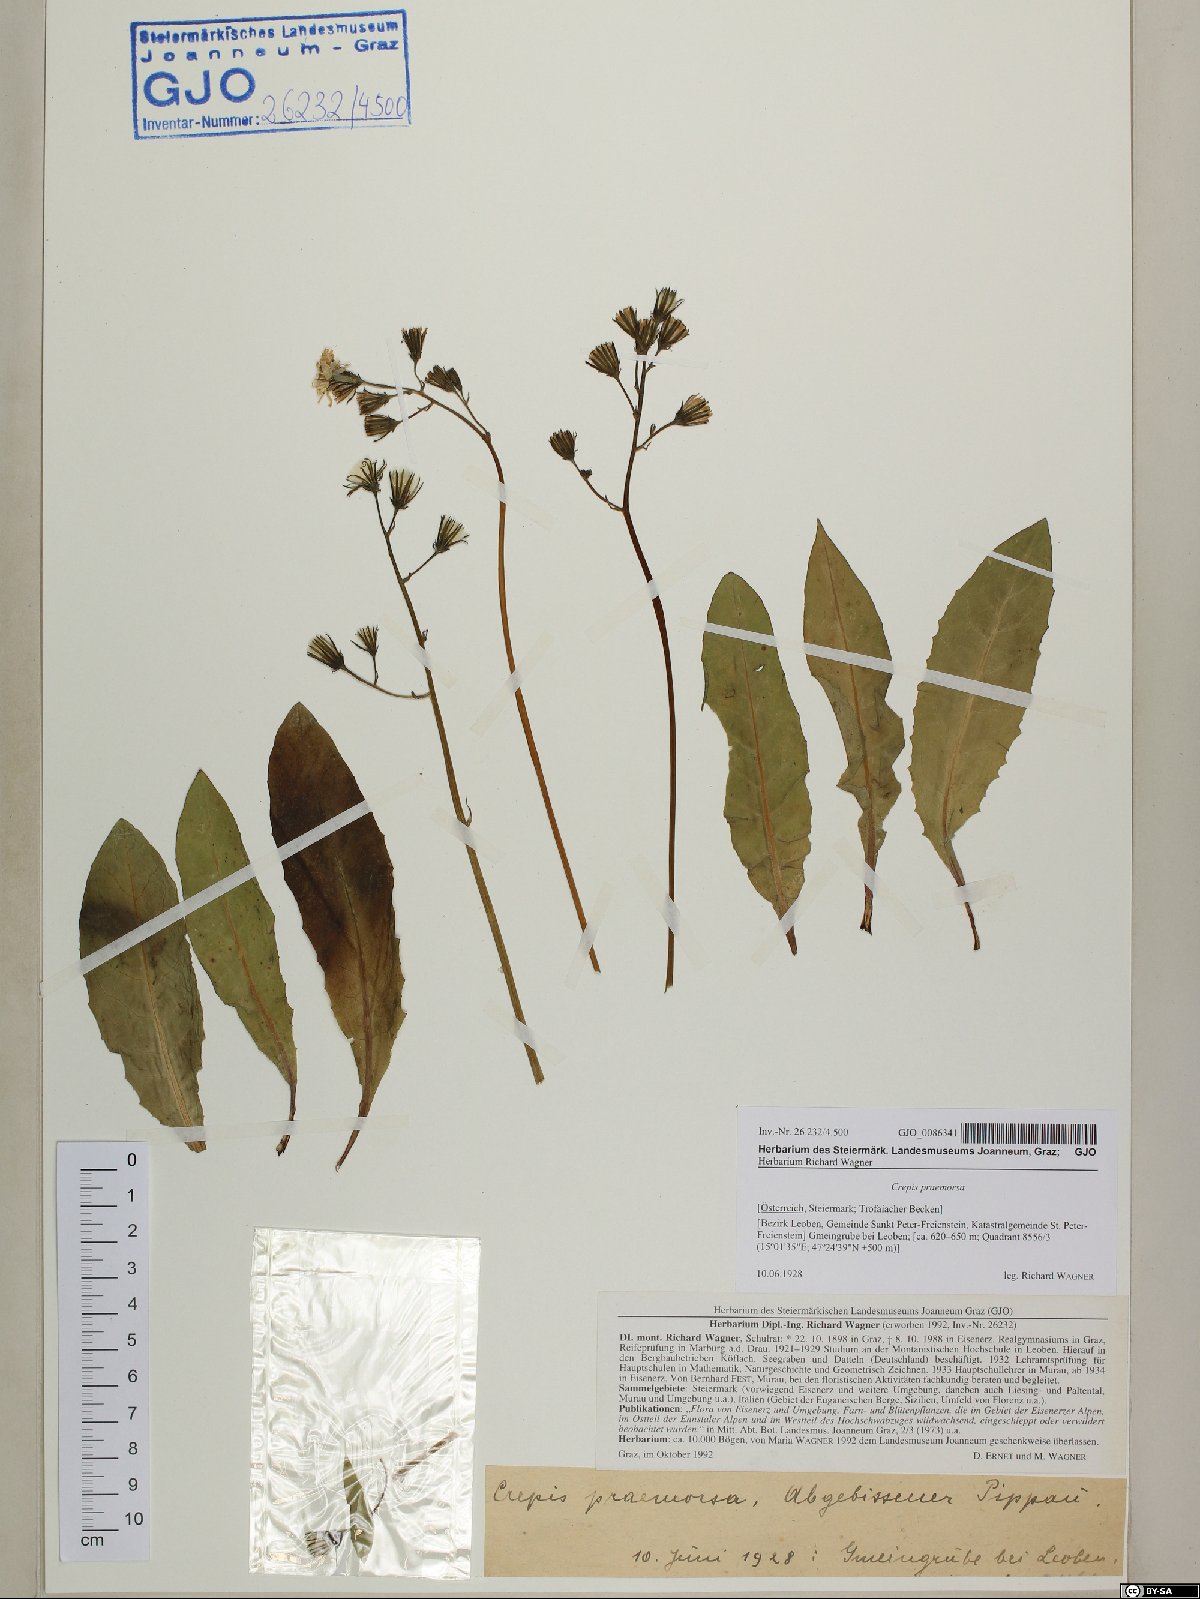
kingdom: Plantae
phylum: Tracheophyta
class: Magnoliopsida
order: Asterales
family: Asteraceae
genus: Crepis
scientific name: Crepis praemorsa
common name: Leafless hawk's-beard
